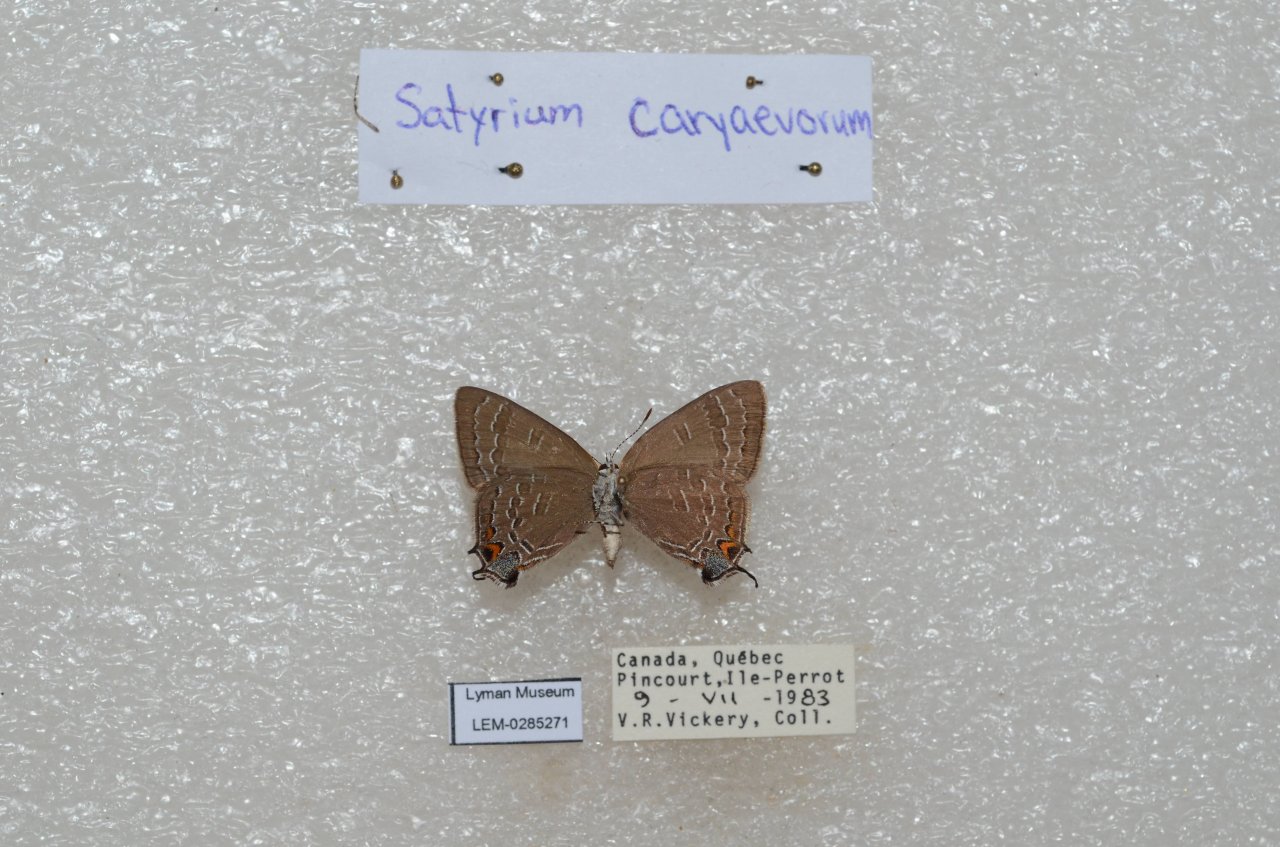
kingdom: Animalia
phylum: Arthropoda
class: Insecta
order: Lepidoptera
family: Lycaenidae
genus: Strymon
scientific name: Strymon caryaevorus
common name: Hickory Hairstreak
